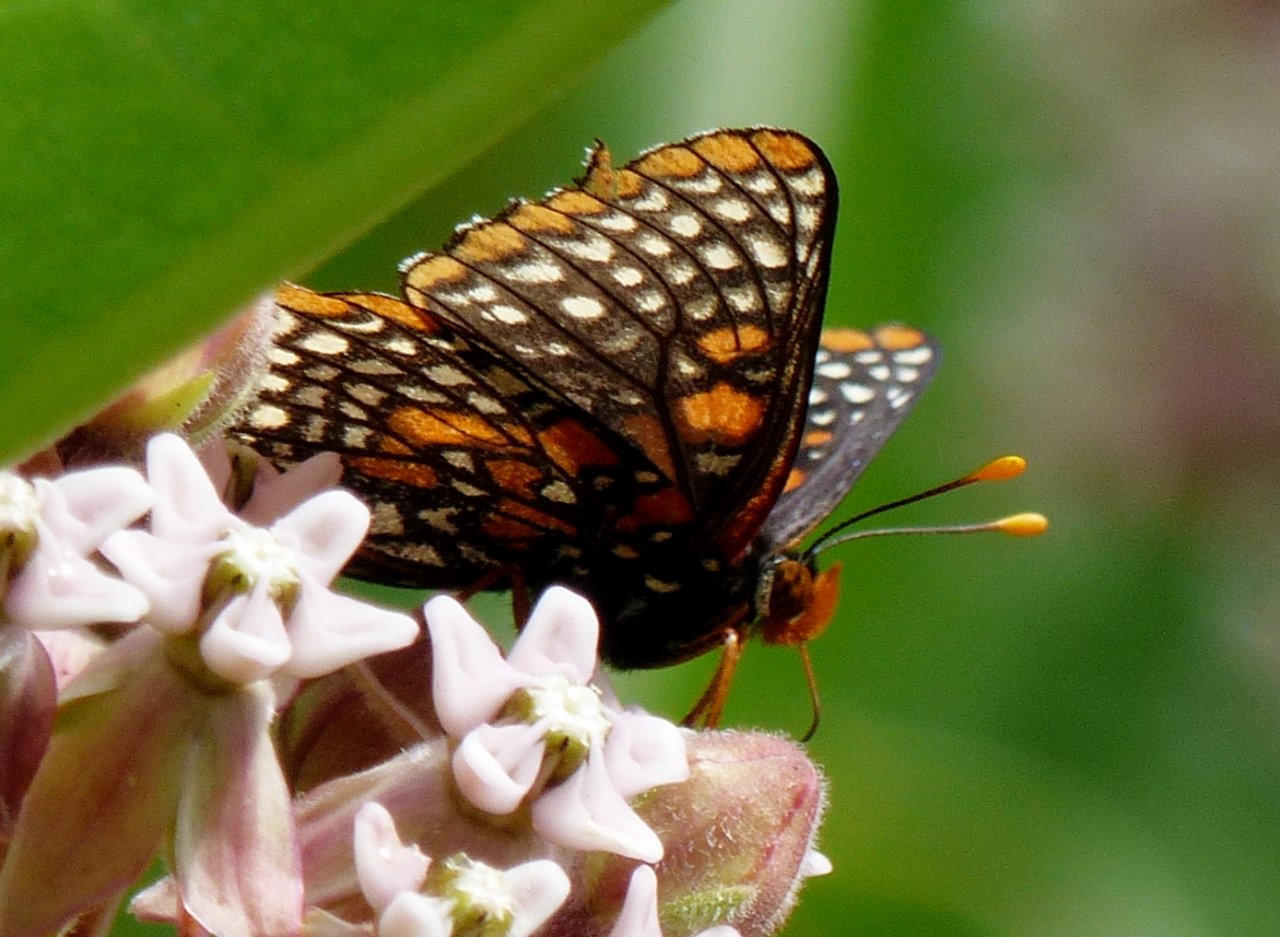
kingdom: Animalia
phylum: Arthropoda
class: Insecta
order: Lepidoptera
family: Nymphalidae
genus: Euphydryas
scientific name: Euphydryas phaeton
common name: Baltimore Checkerspot
